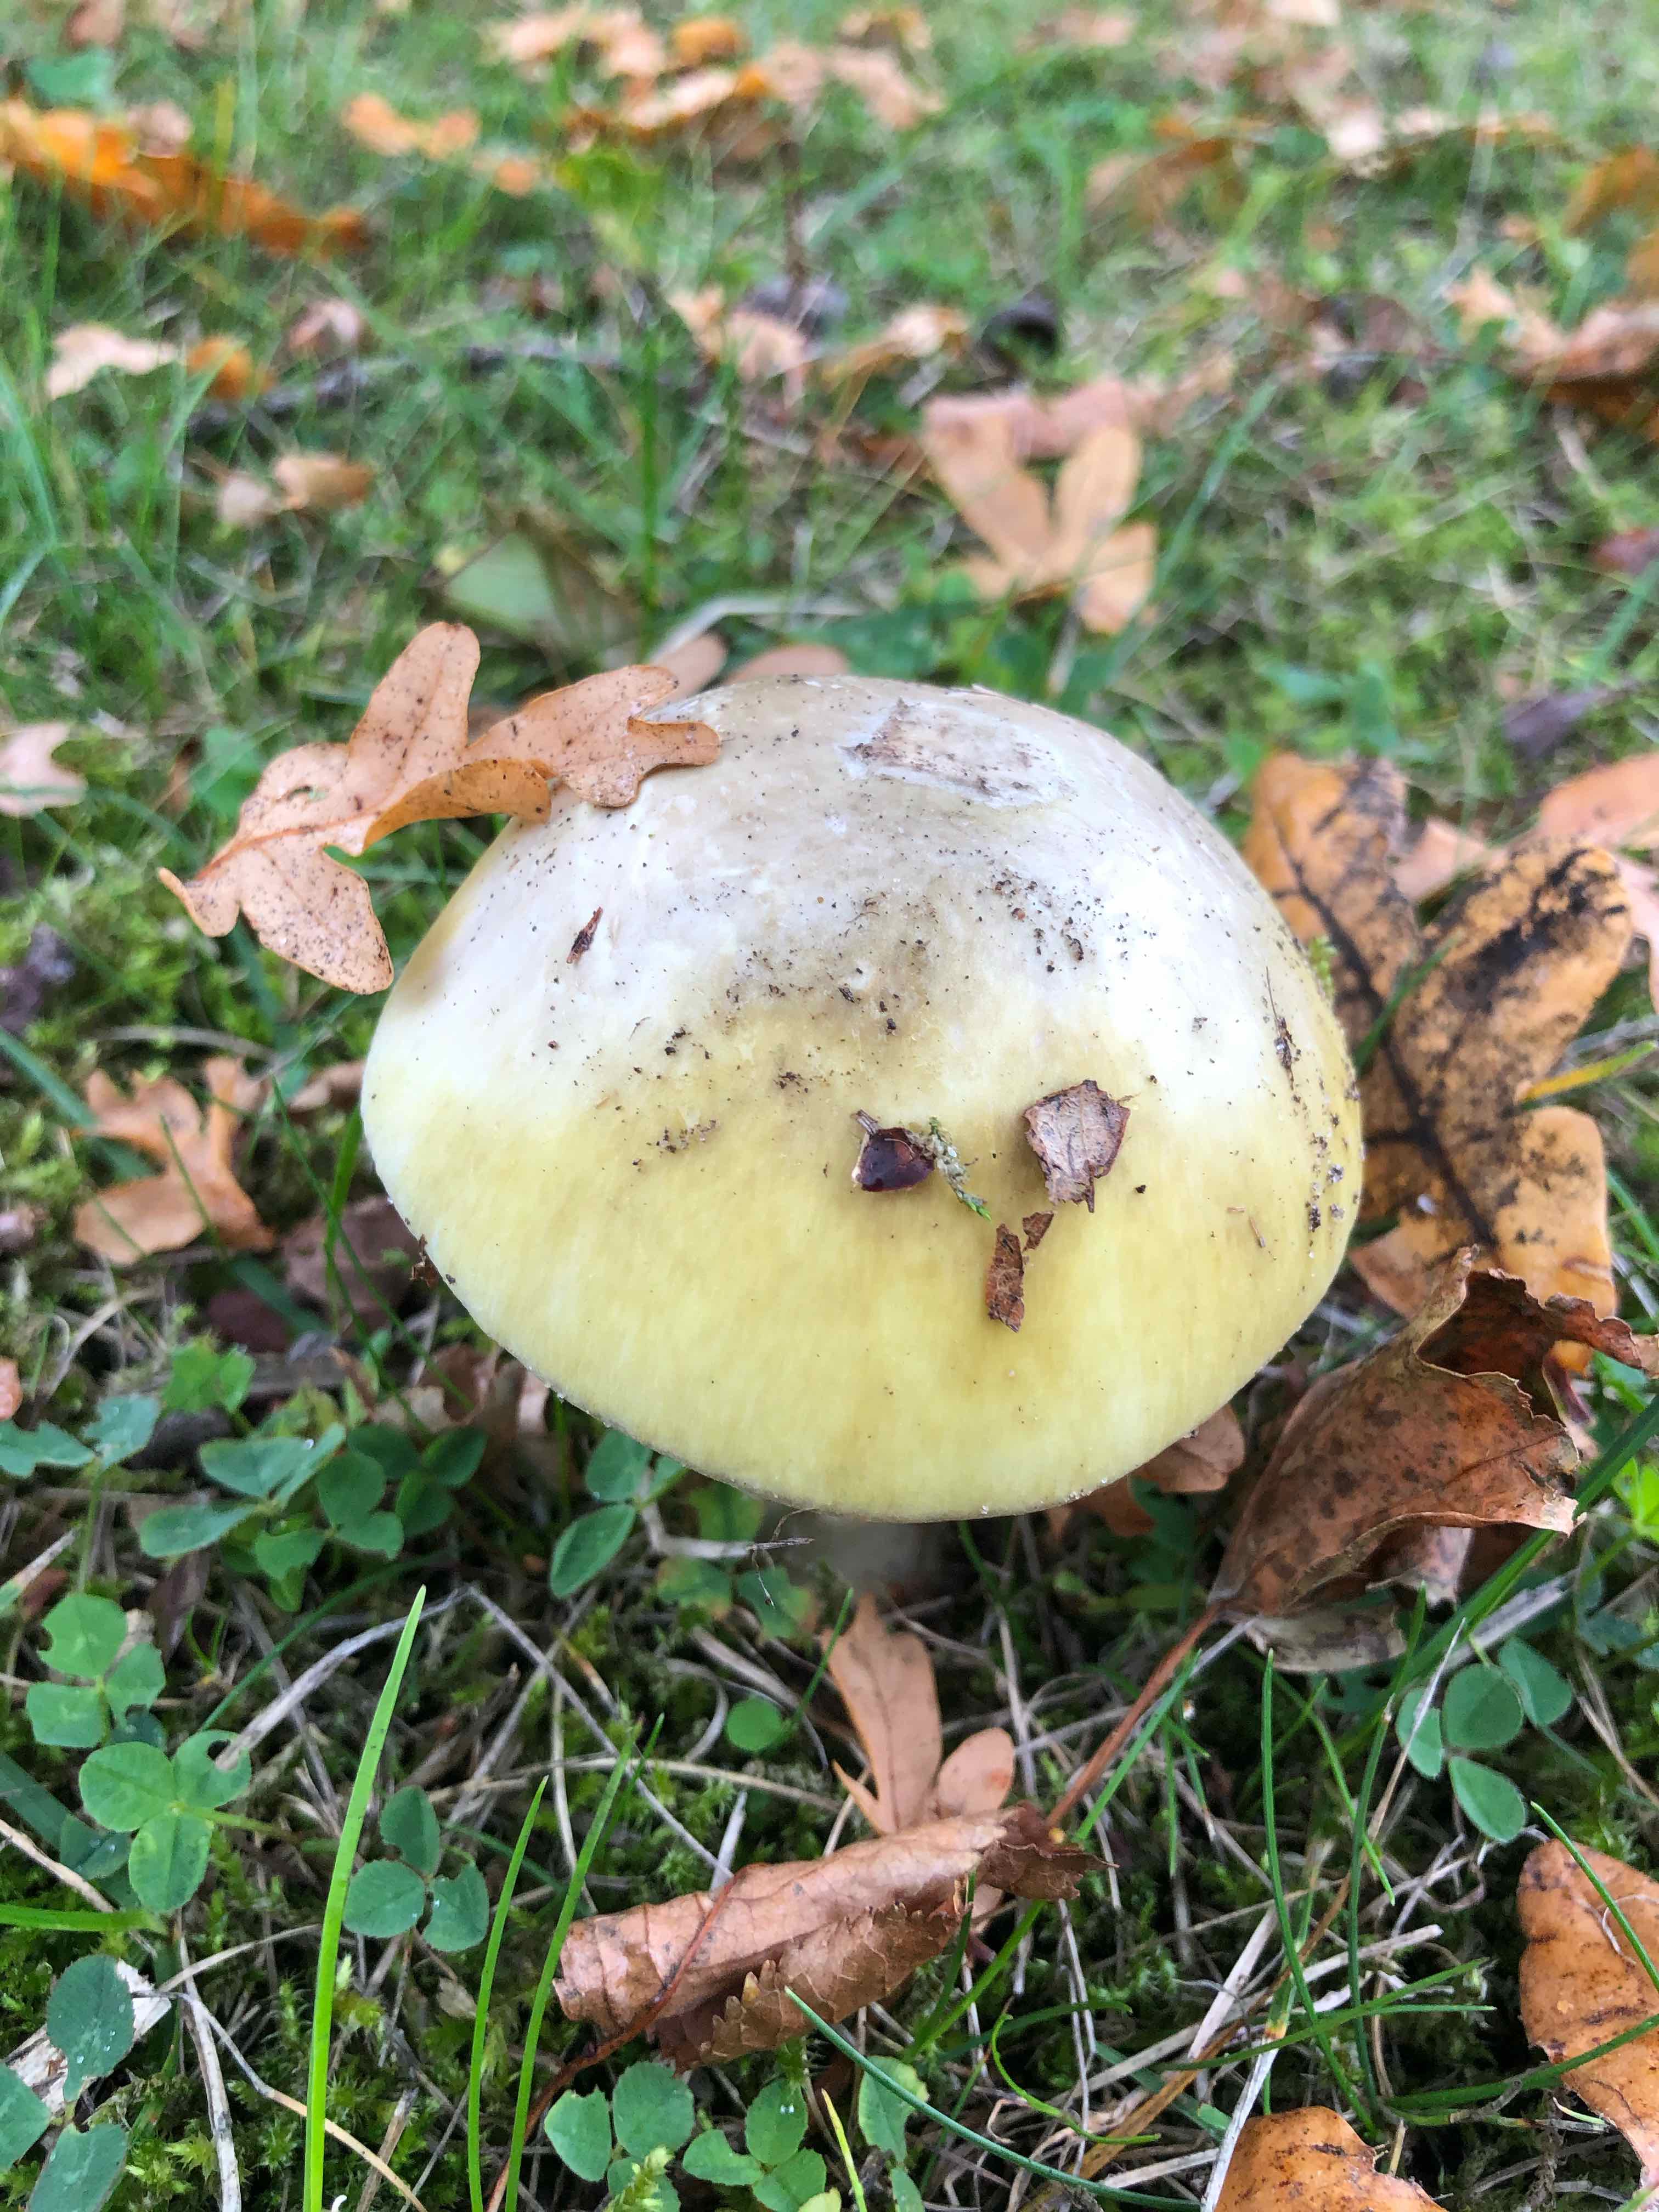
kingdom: Fungi
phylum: Basidiomycota
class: Agaricomycetes
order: Agaricales
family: Amanitaceae
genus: Amanita
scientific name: Amanita phalloides
